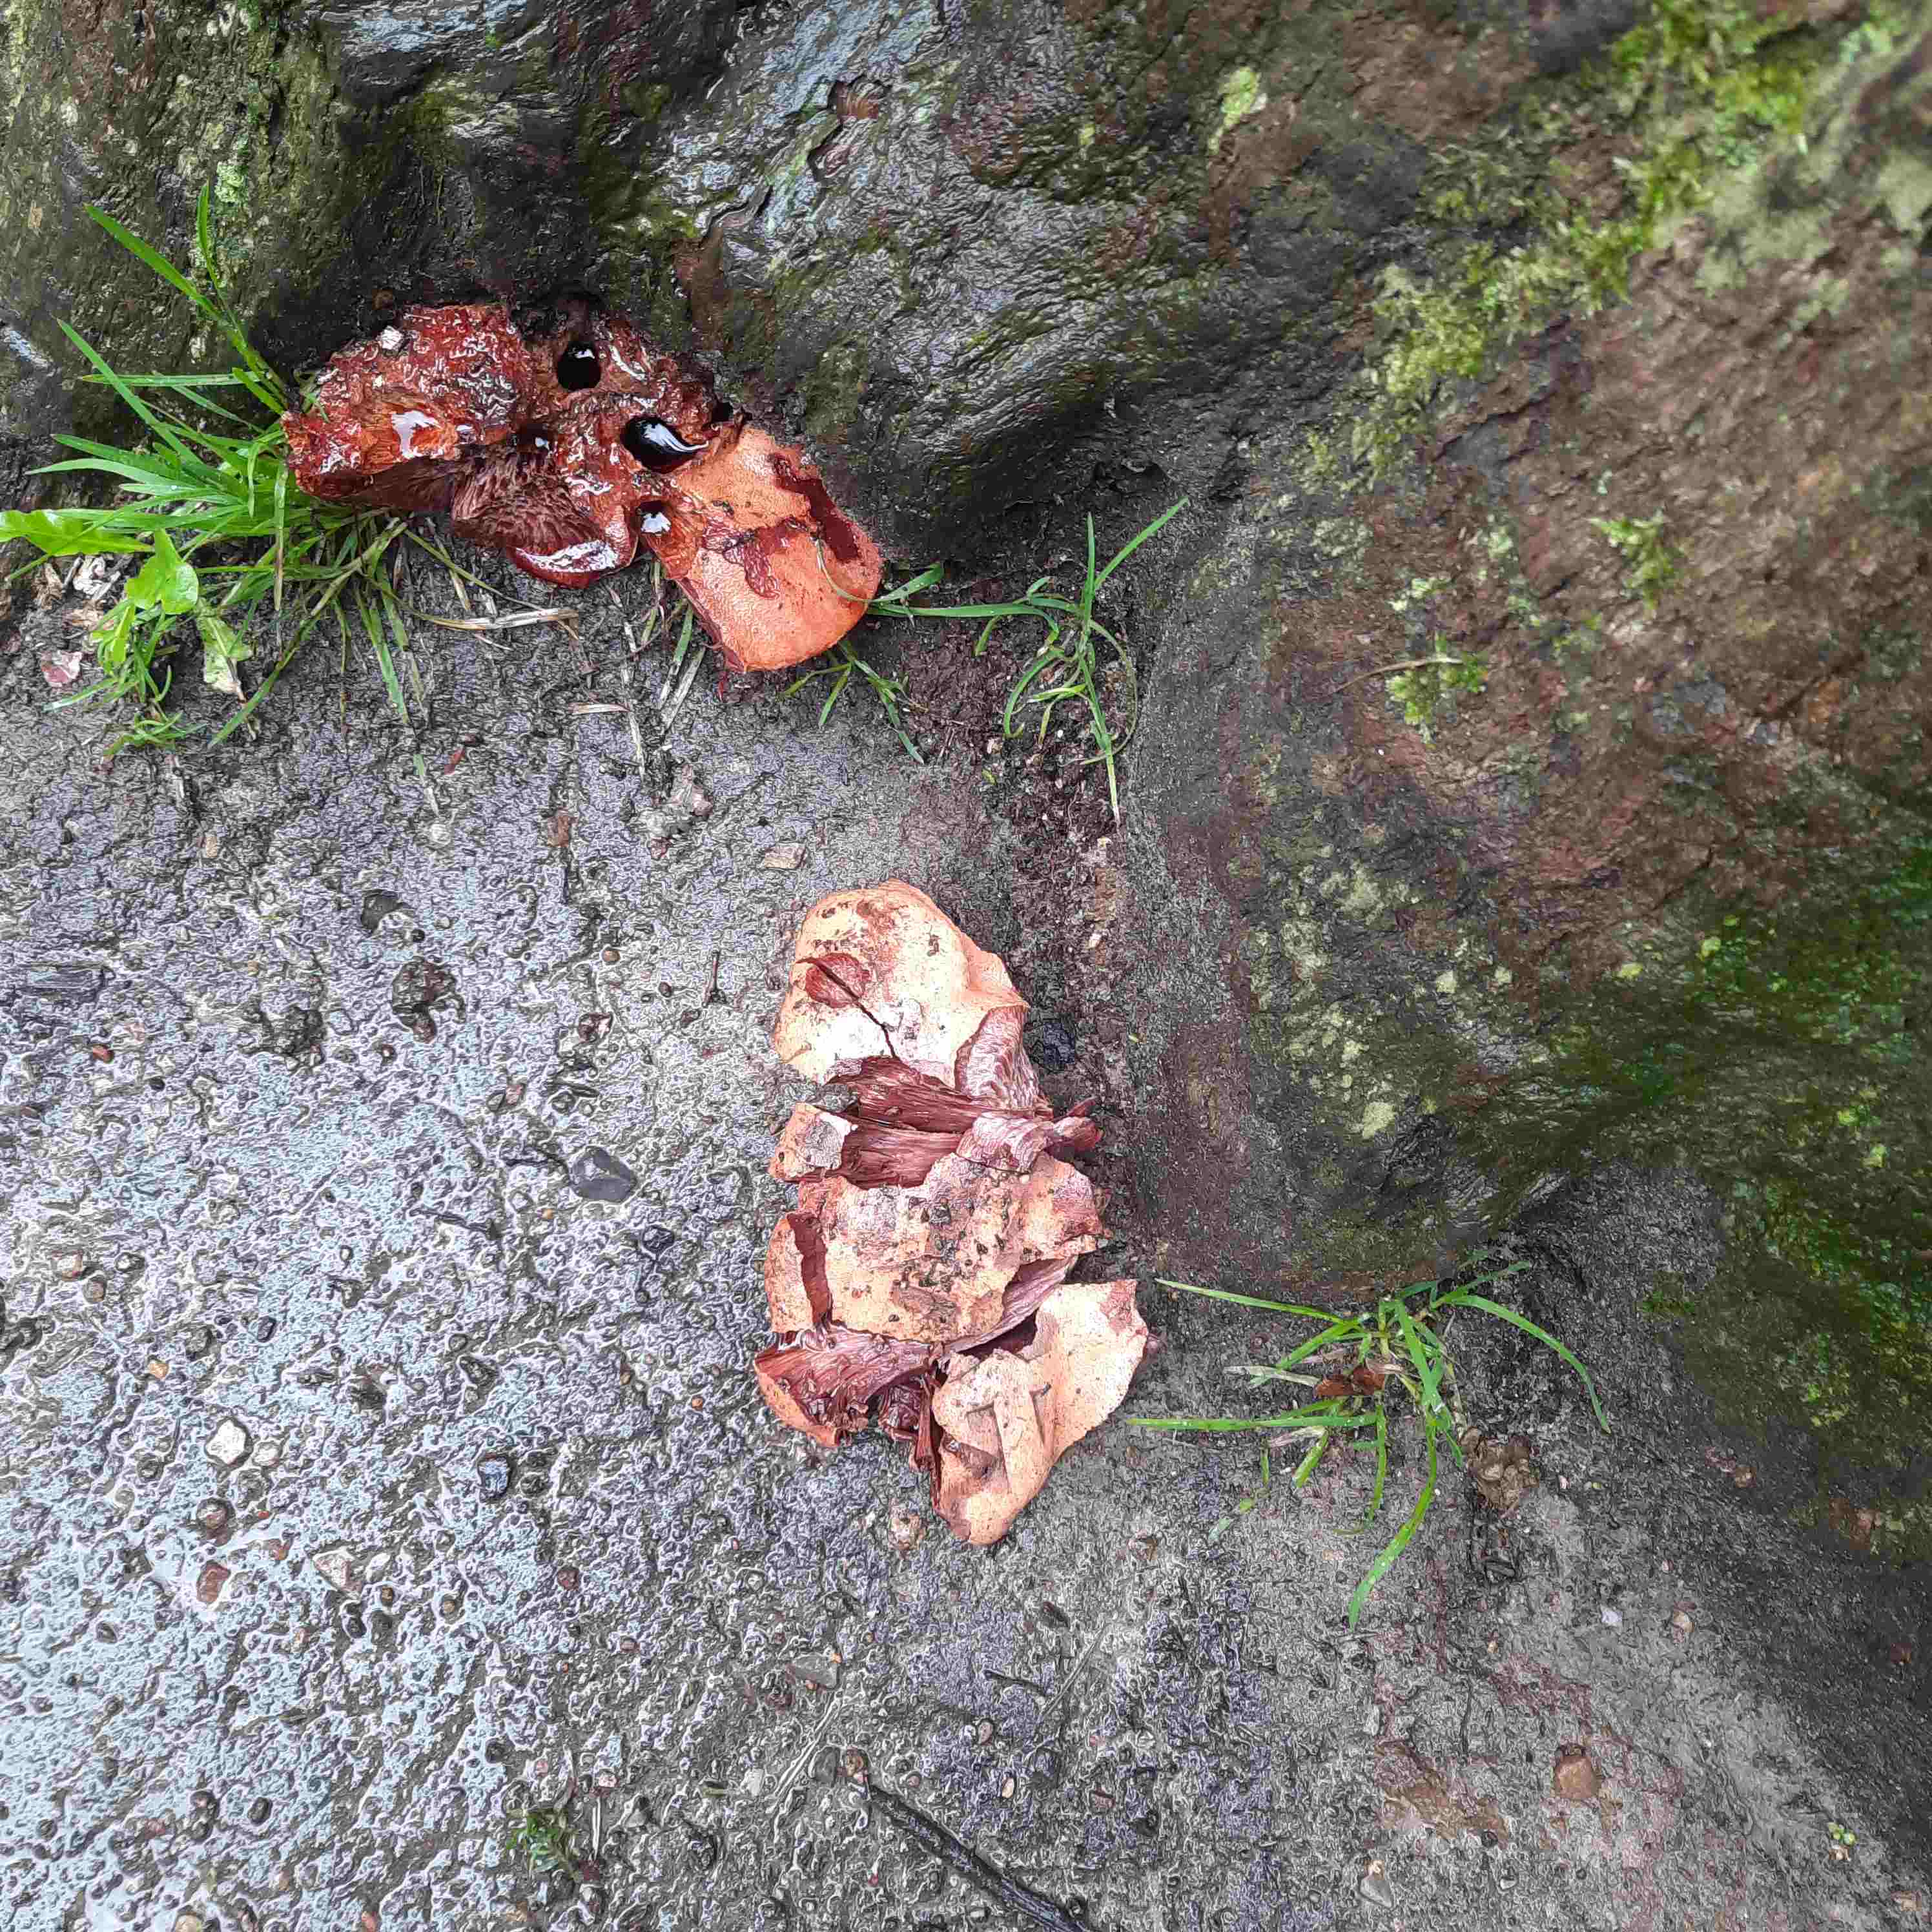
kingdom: Fungi
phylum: Basidiomycota
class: Agaricomycetes
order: Agaricales
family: Fistulinaceae
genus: Fistulina
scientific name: Fistulina hepatica
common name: oksetunge
